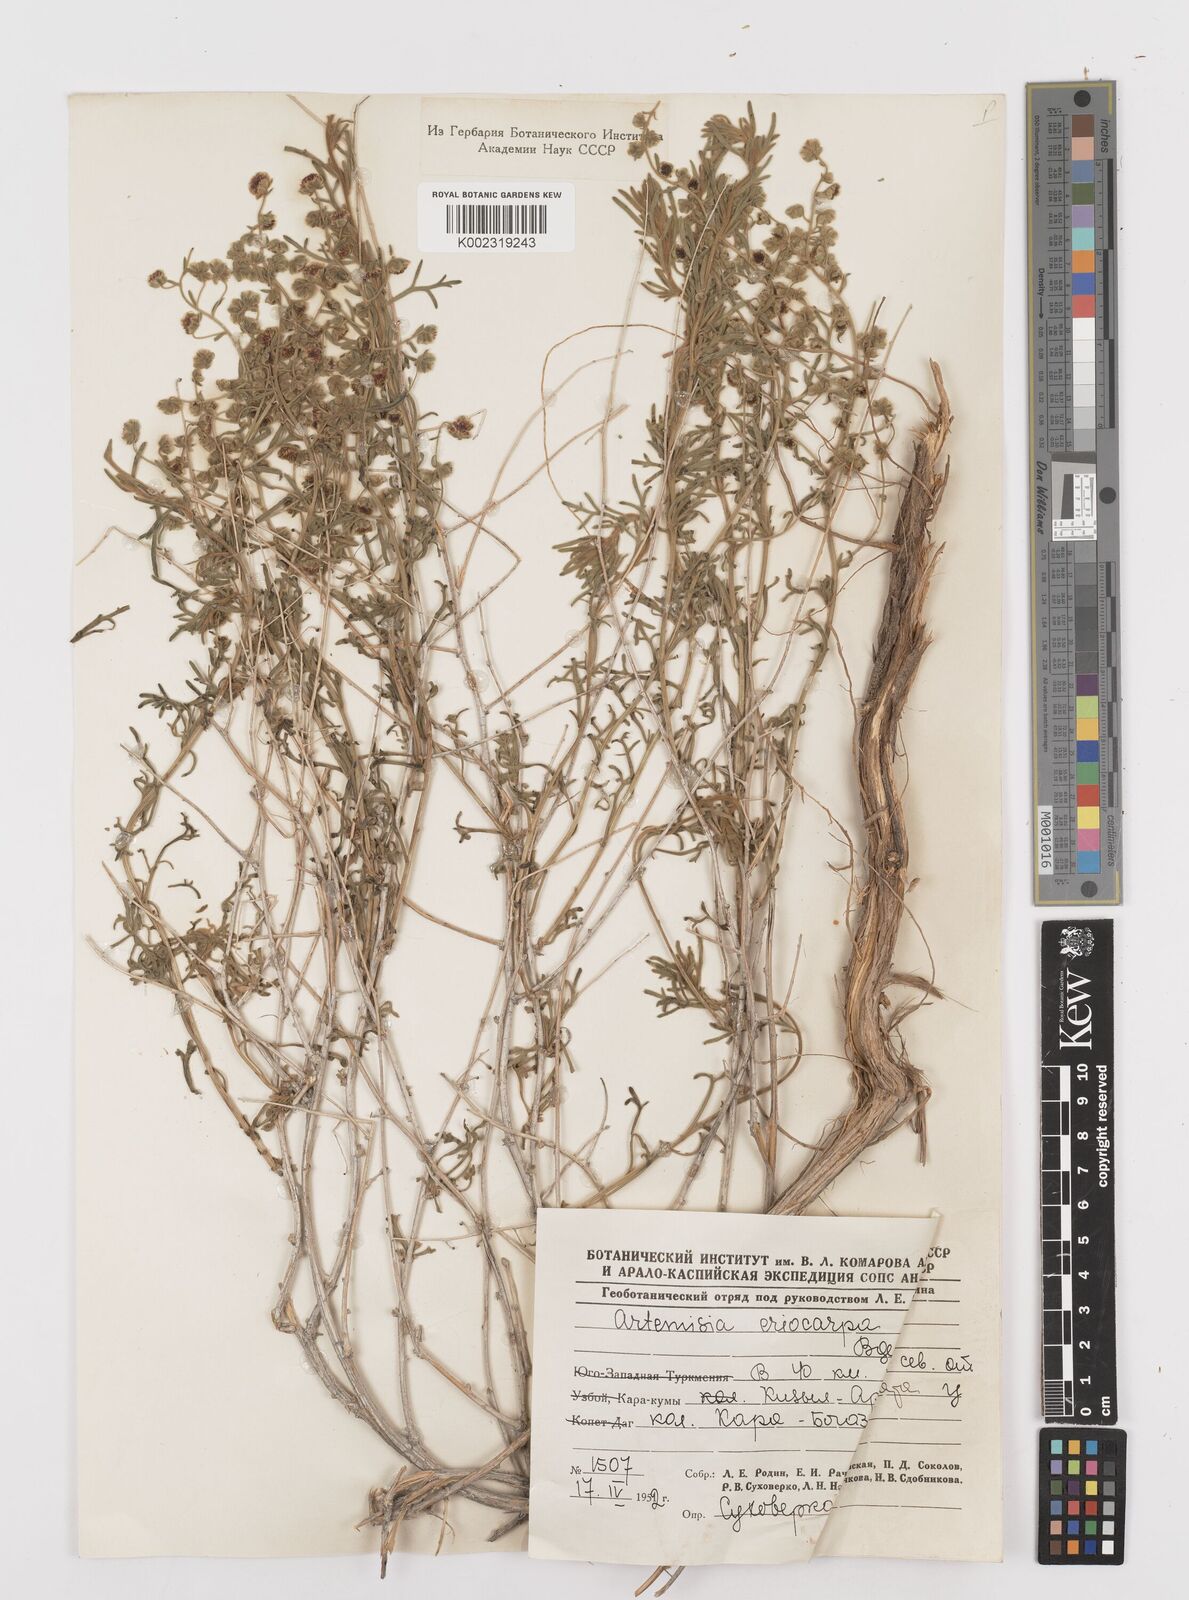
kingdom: Plantae
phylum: Tracheophyta
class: Magnoliopsida
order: Asterales
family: Asteraceae
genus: Mausolea
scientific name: Mausolea
